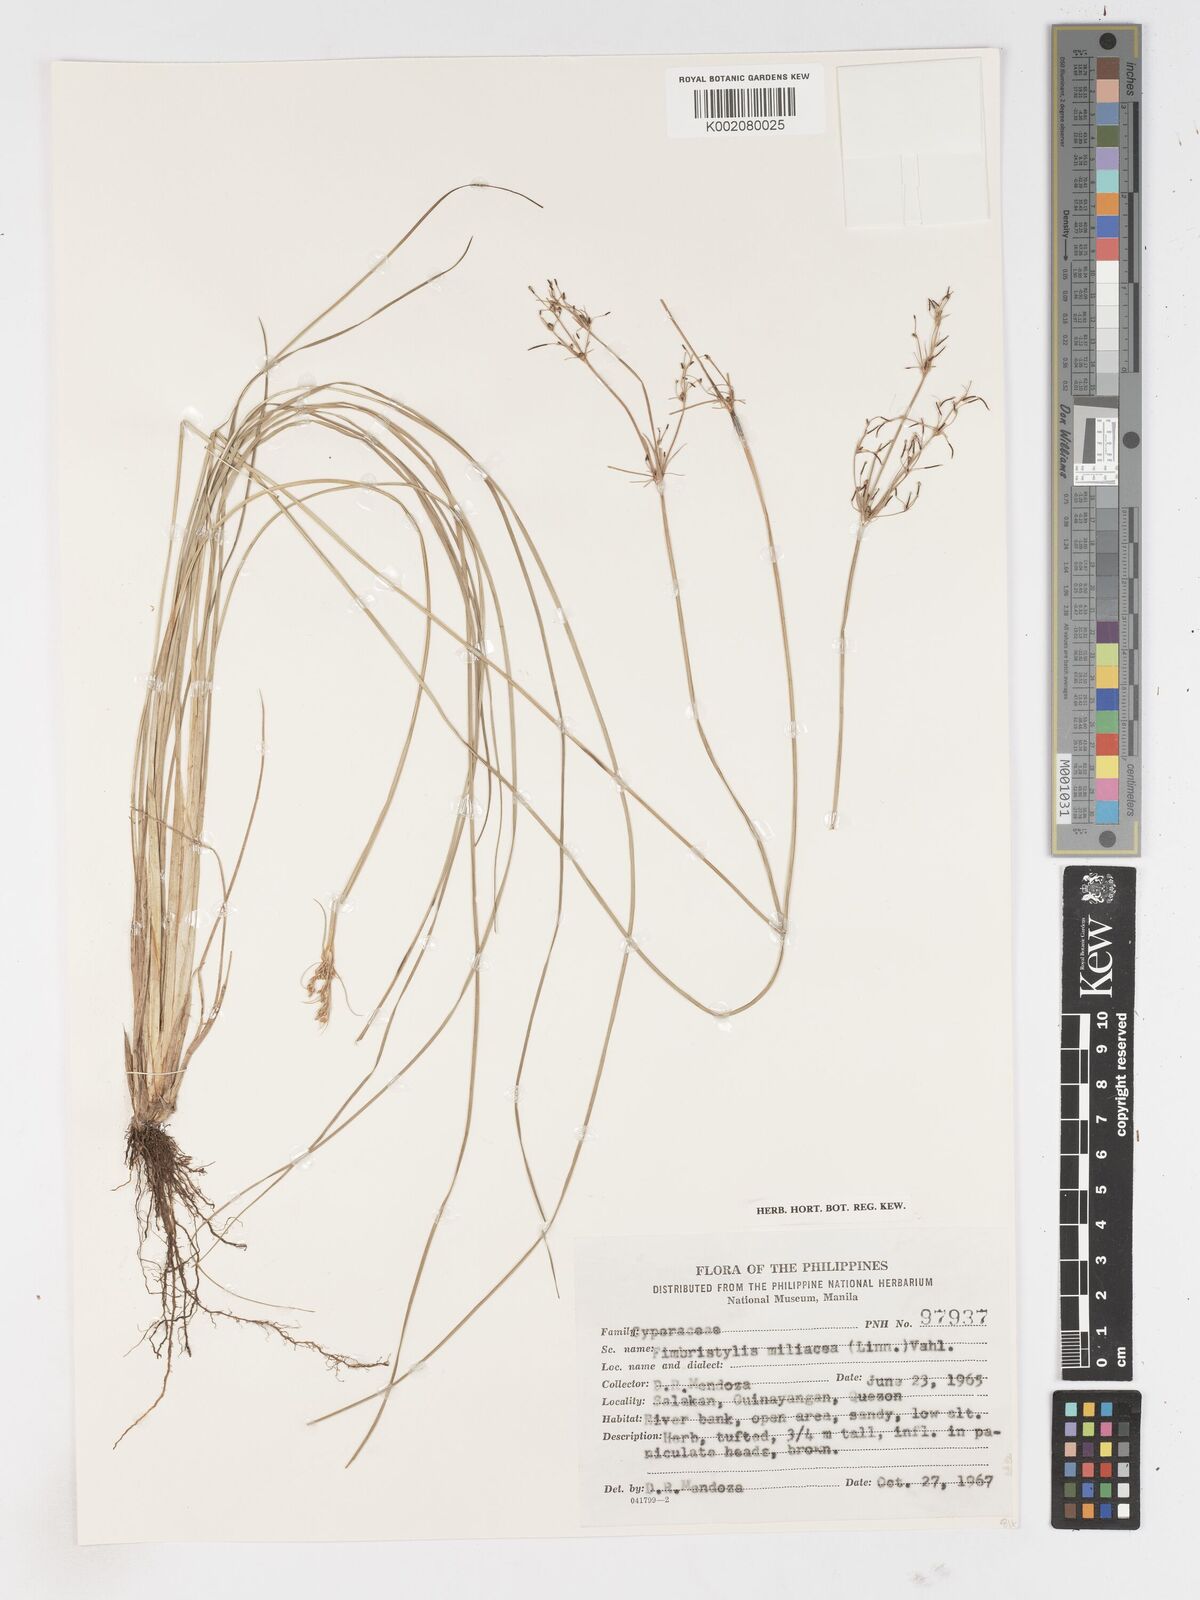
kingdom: Plantae
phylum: Tracheophyta
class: Liliopsida
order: Poales
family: Cyperaceae
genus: Fimbristylis
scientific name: Fimbristylis littoralis
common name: Fimbry
